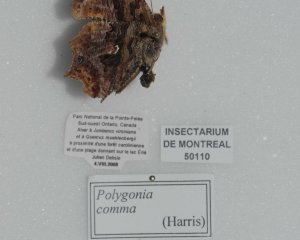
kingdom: Animalia
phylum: Arthropoda
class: Insecta
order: Lepidoptera
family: Nymphalidae
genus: Polygonia
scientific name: Polygonia comma
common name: Eastern Comma
